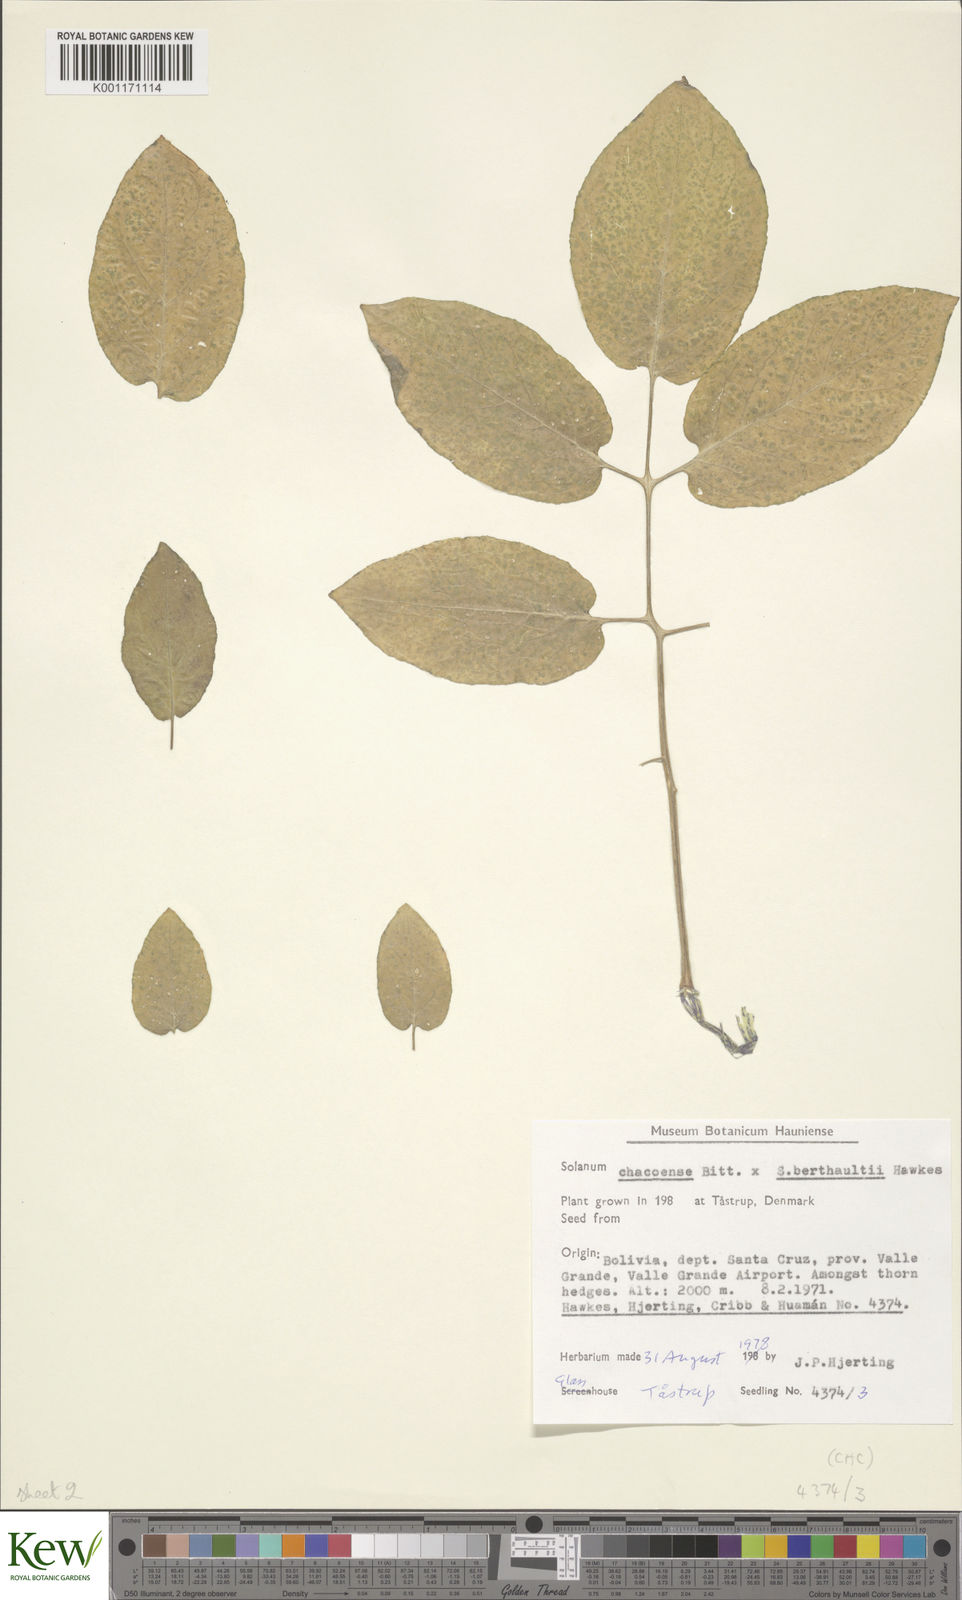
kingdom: Plantae
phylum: Tracheophyta
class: Magnoliopsida
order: Solanales
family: Solanaceae
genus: Solanum
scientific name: Solanum chacoense
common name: Chaco potato
